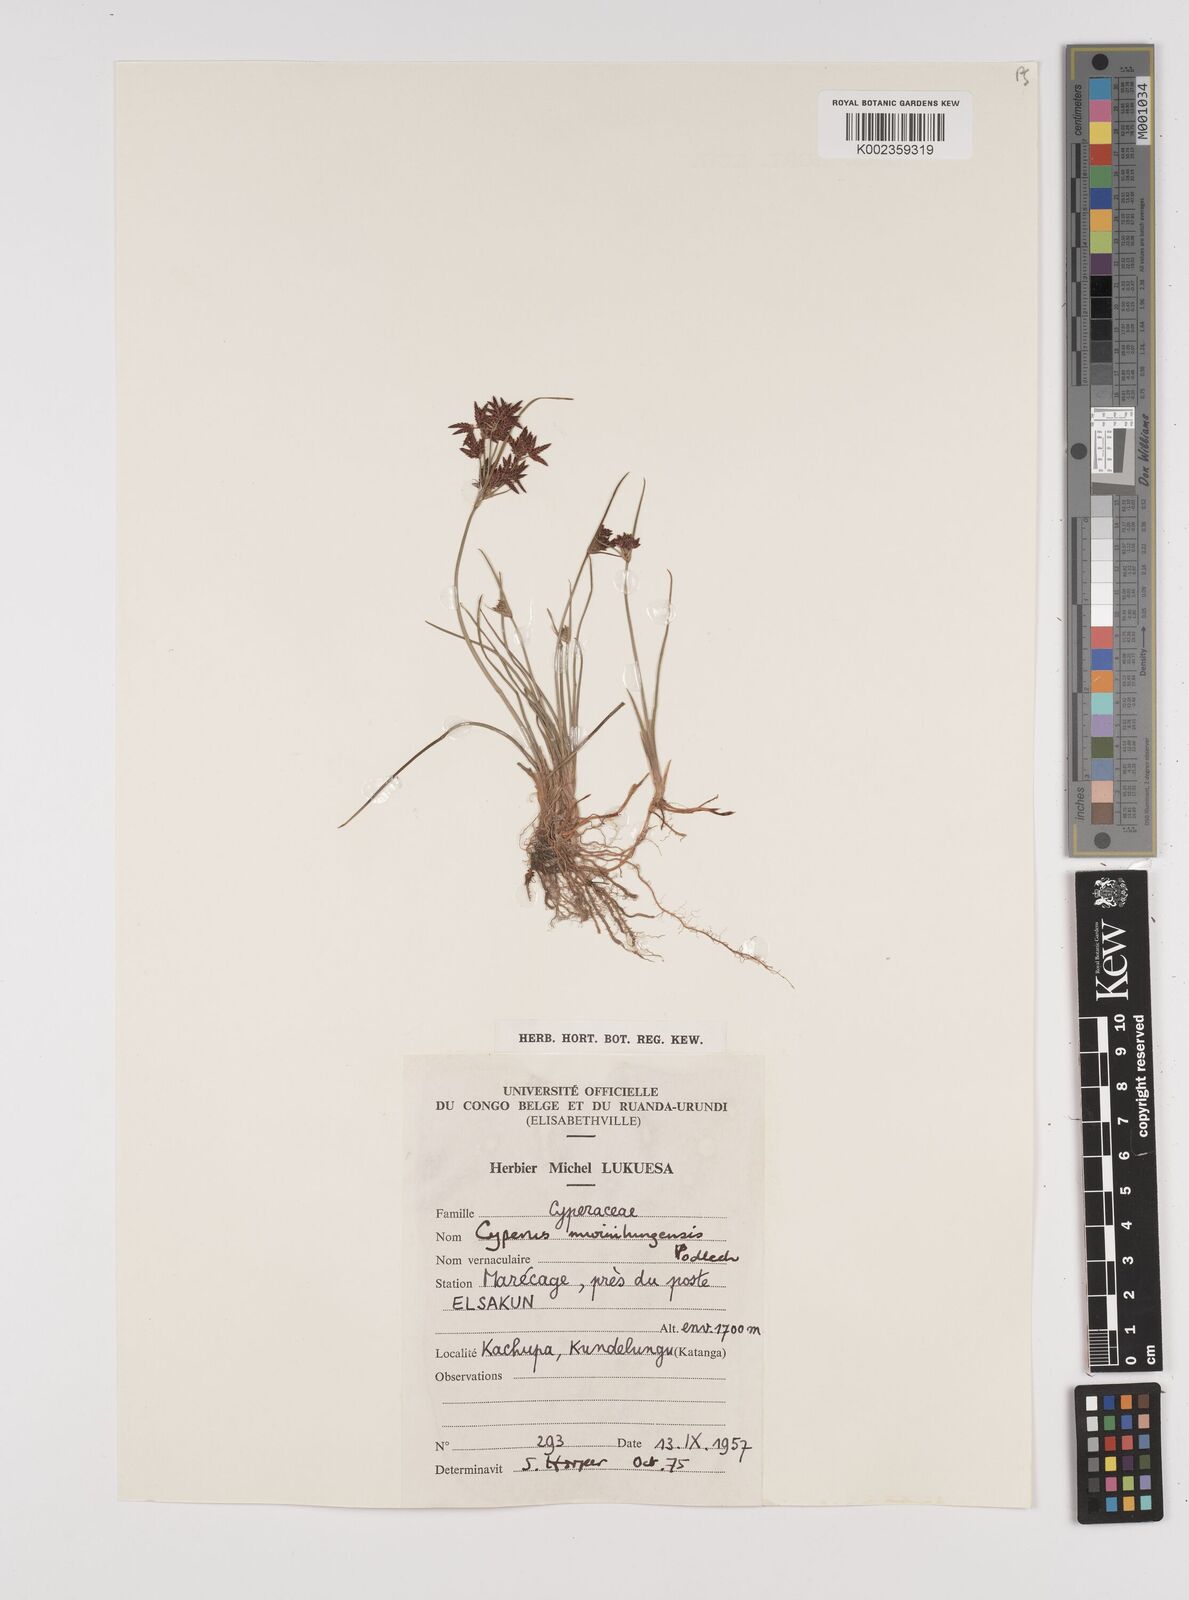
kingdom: Plantae
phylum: Tracheophyta
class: Liliopsida
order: Poales
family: Cyperaceae
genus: Cyperus
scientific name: Cyperus mwinilungensis
